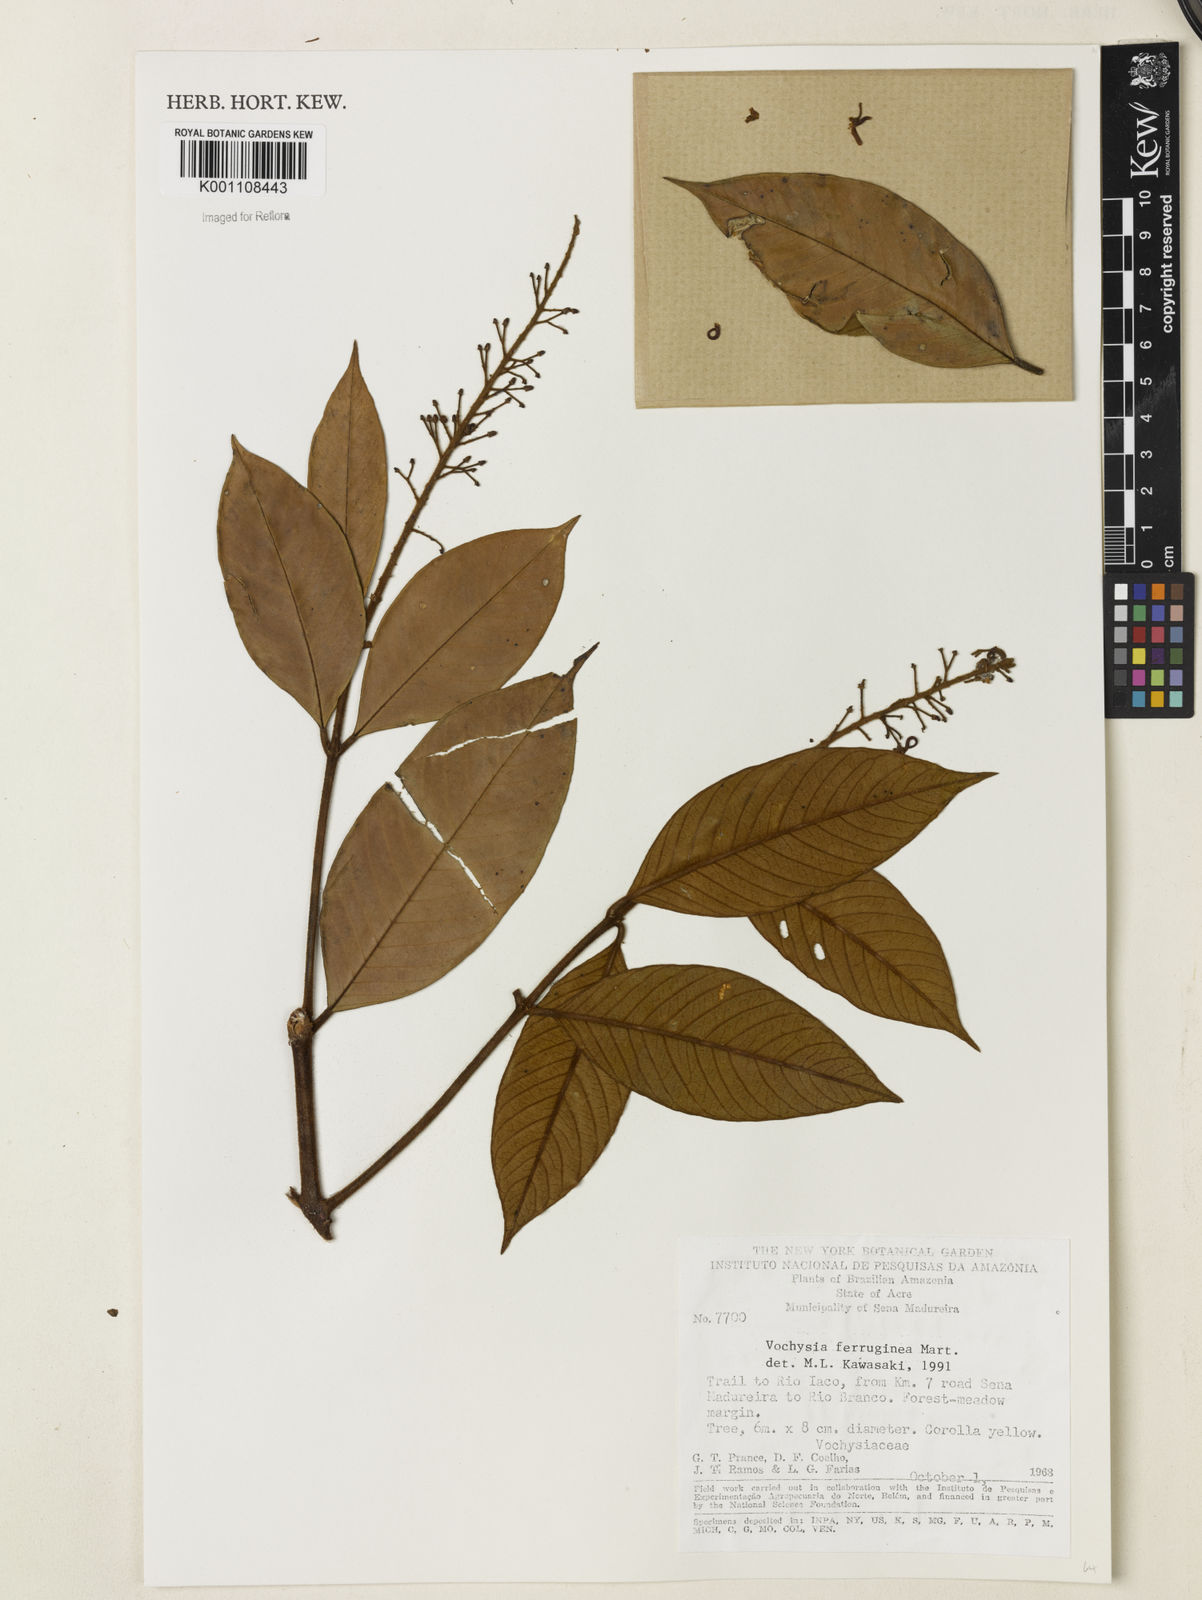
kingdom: Plantae
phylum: Tracheophyta
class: Magnoliopsida
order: Myrtales
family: Vochysiaceae
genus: Vochysia
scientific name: Vochysia ferruginea
